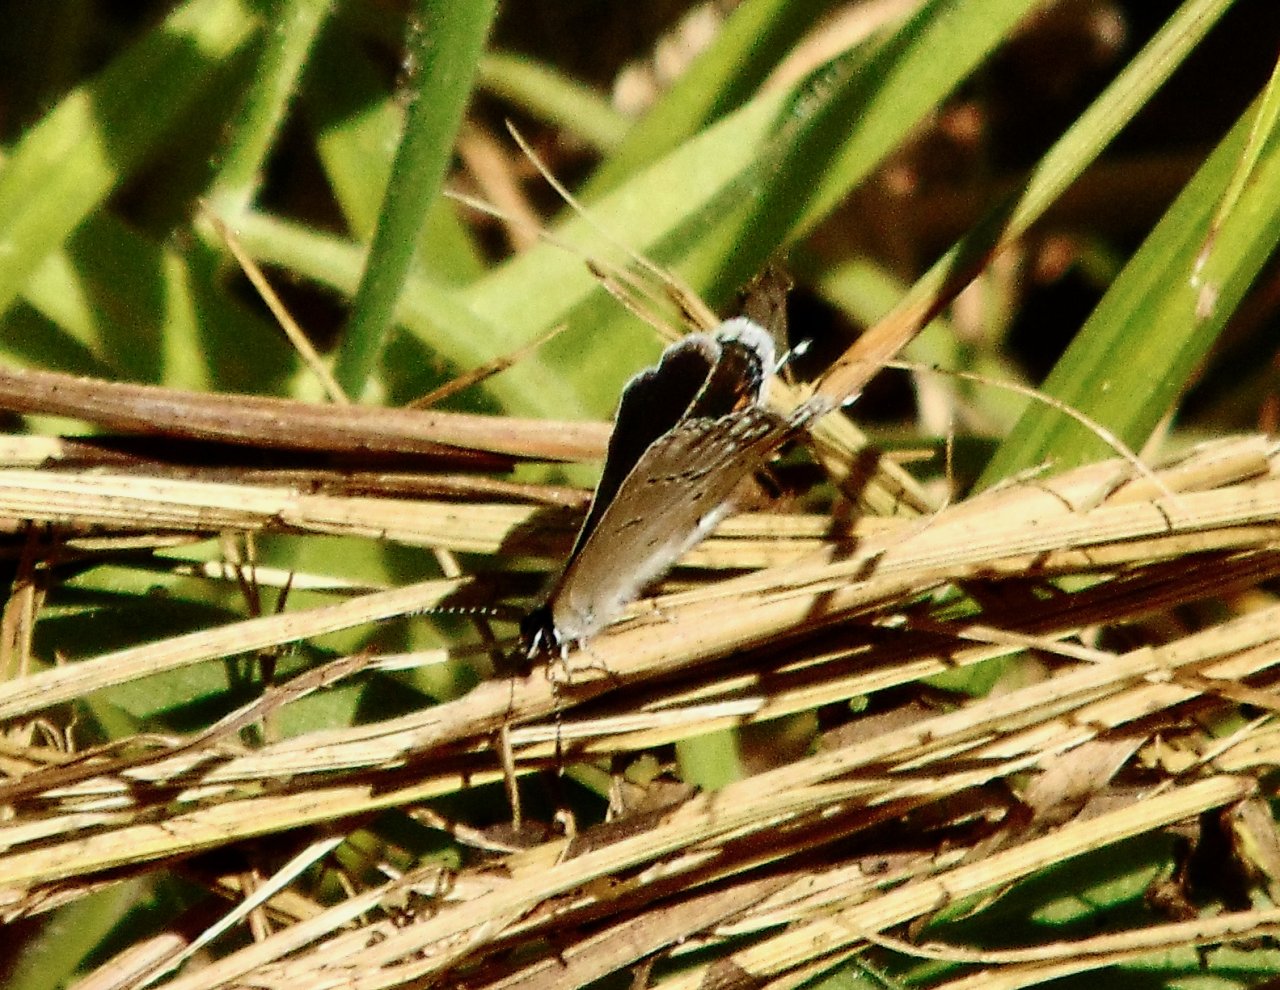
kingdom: Animalia
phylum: Arthropoda
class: Insecta
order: Lepidoptera
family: Lycaenidae
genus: Elkalyce
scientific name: Elkalyce comyntas
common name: Eastern Tailed-Blue
